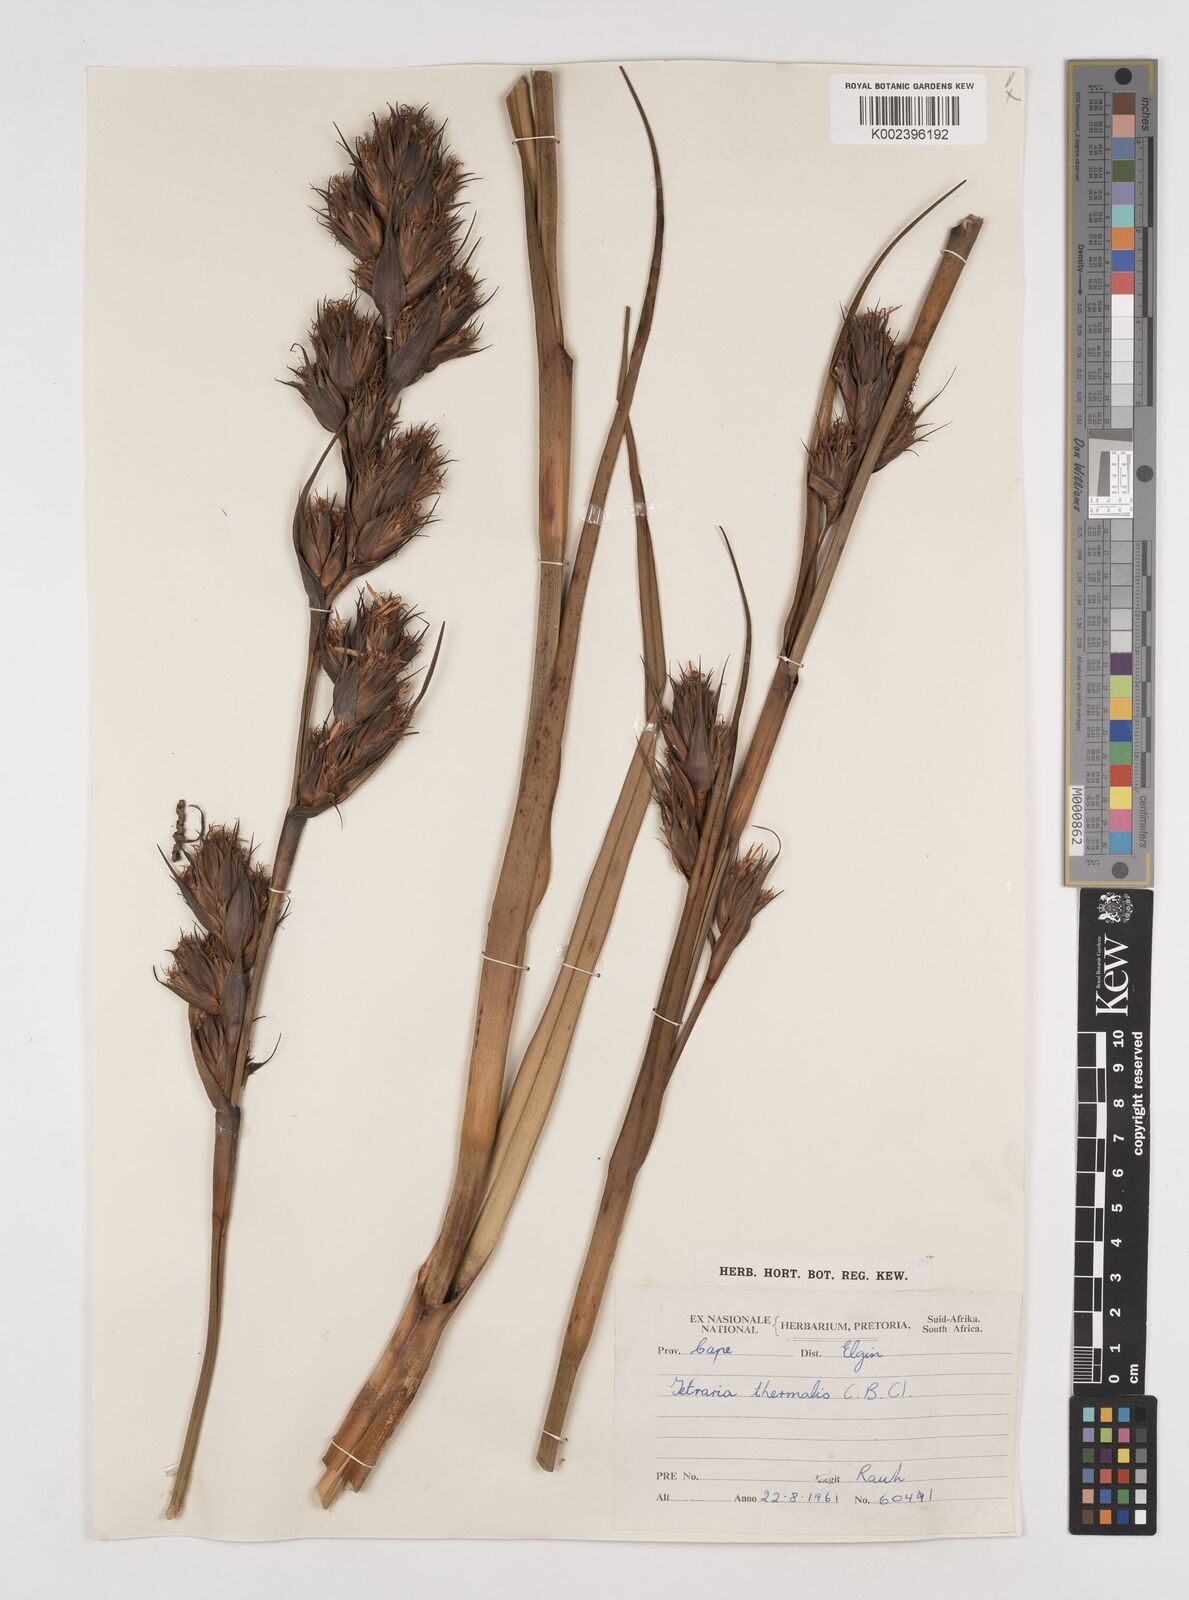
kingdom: Plantae
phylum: Tracheophyta
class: Liliopsida
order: Poales
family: Cyperaceae
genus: Tetraria
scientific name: Tetraria thermalis
